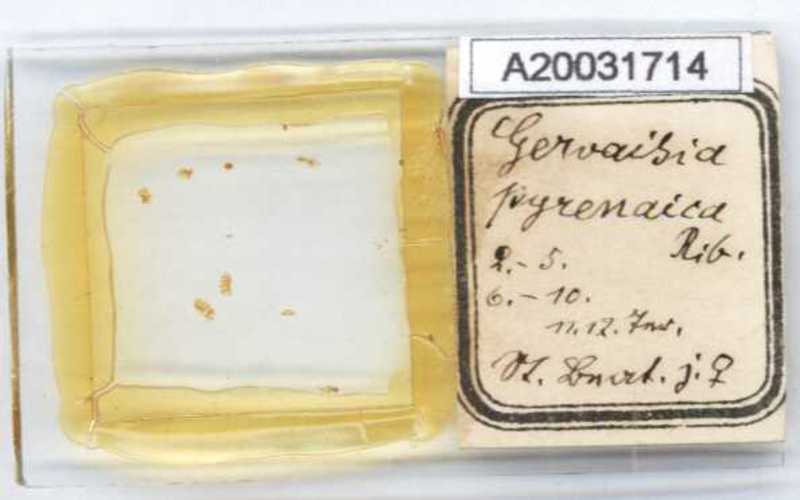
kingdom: Animalia
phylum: Arthropoda
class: Diplopoda
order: Glomerida
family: Glomeridae
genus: Trachysphaera
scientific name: Trachysphaera pyrenaica
